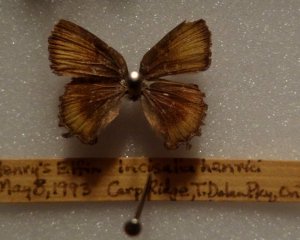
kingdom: Animalia
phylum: Arthropoda
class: Insecta
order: Lepidoptera
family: Lycaenidae
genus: Incisalia
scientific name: Incisalia henrici
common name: Henry's Elfin
